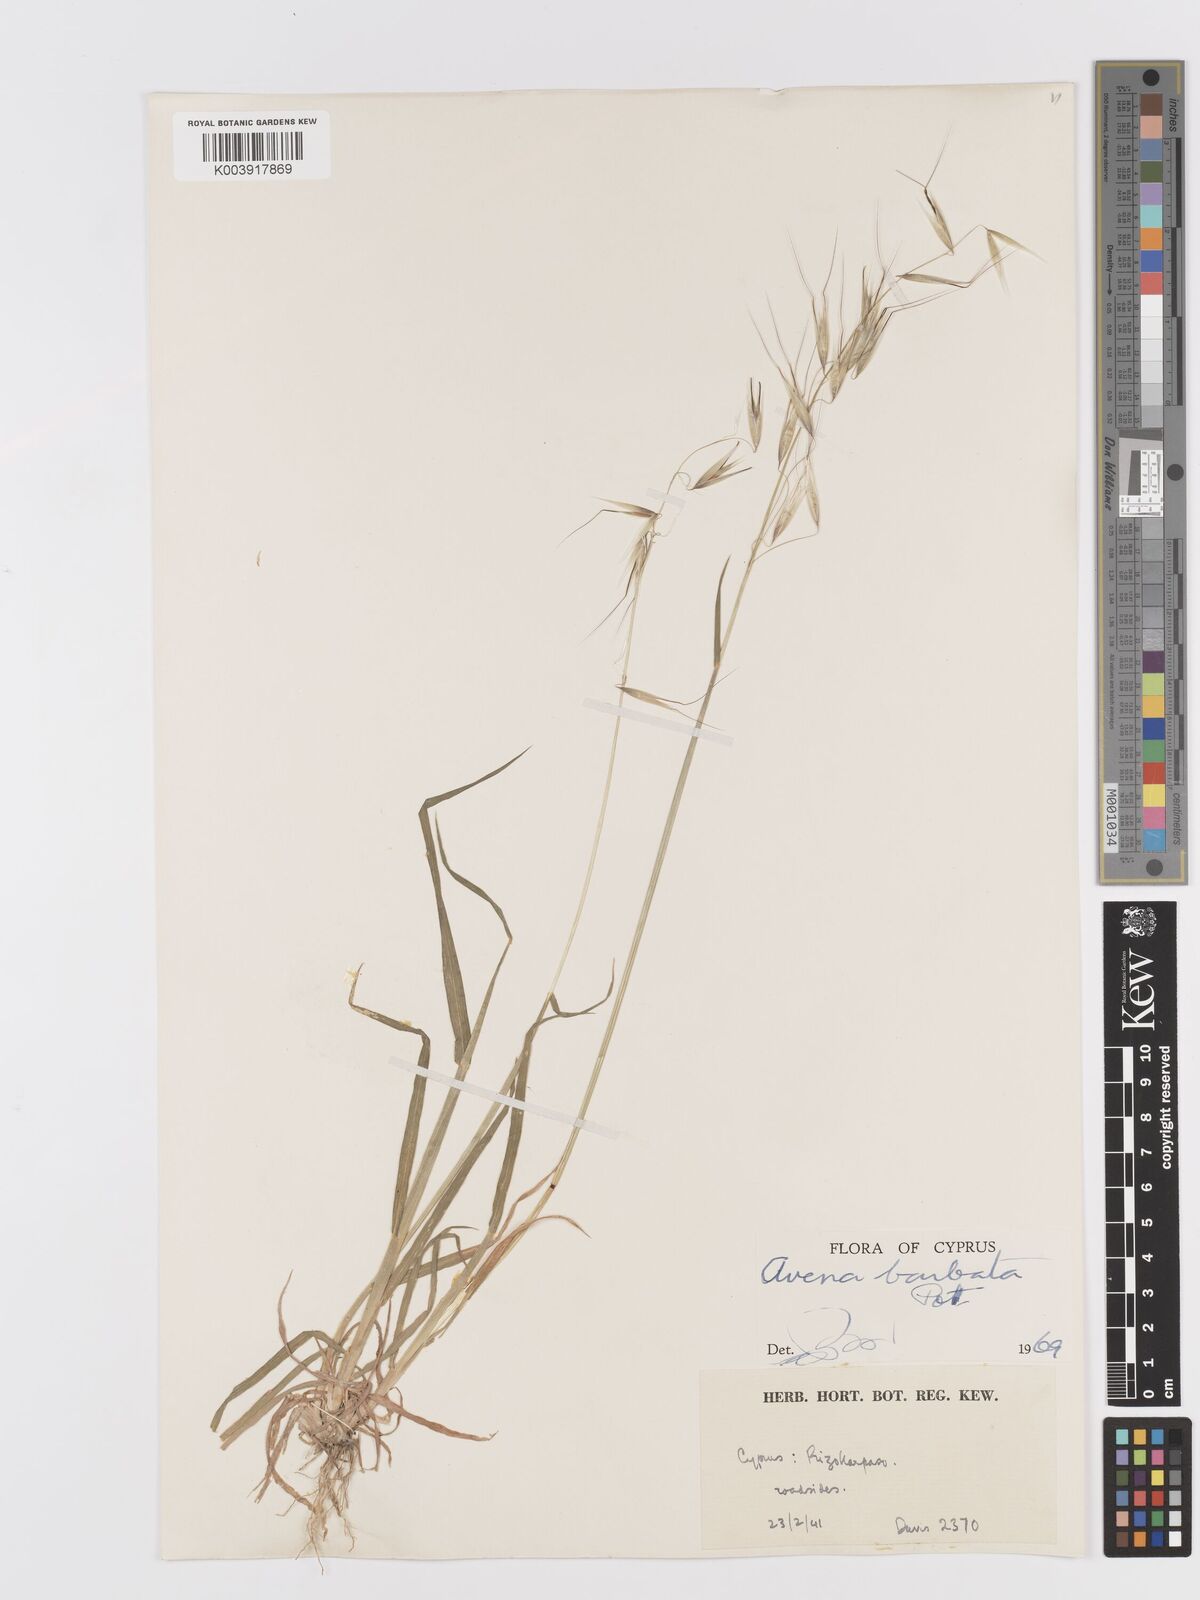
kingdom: Plantae
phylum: Tracheophyta
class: Liliopsida
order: Poales
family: Poaceae
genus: Avena
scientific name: Avena
